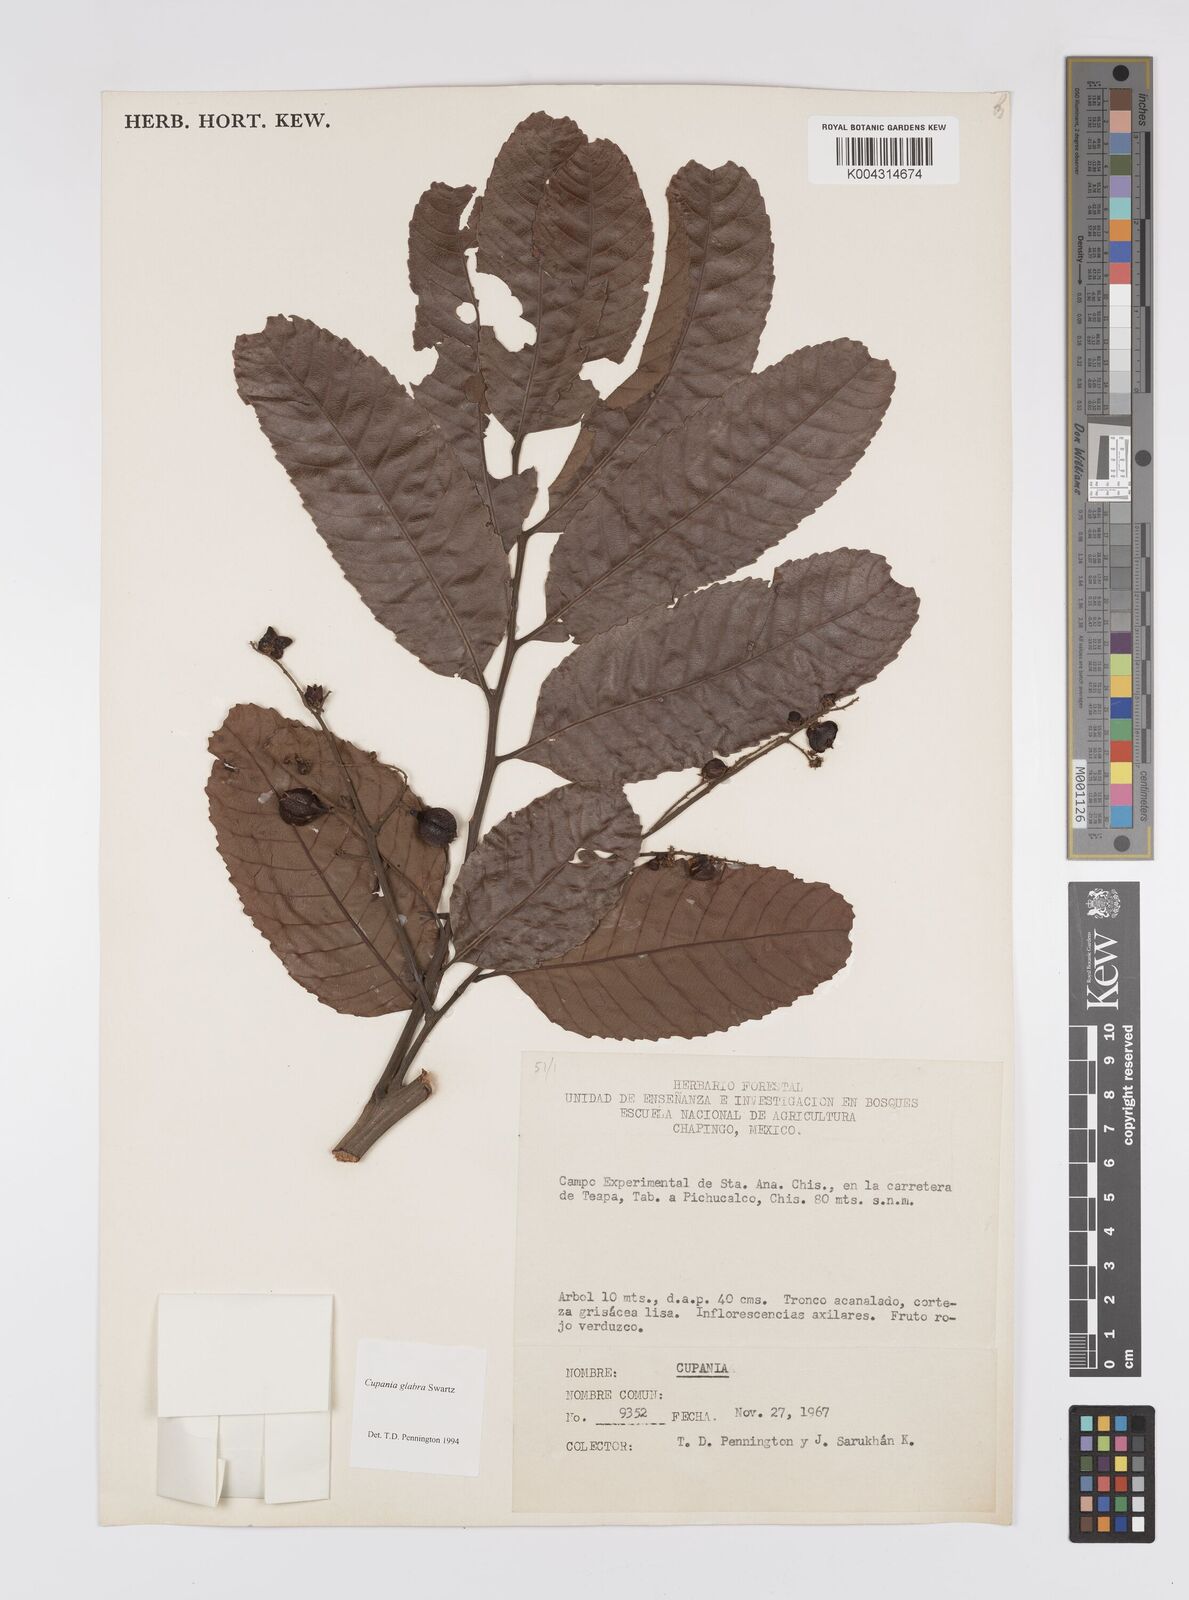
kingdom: Plantae
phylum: Tracheophyta
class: Magnoliopsida
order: Sapindales
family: Sapindaceae
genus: Cupania
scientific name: Cupania
